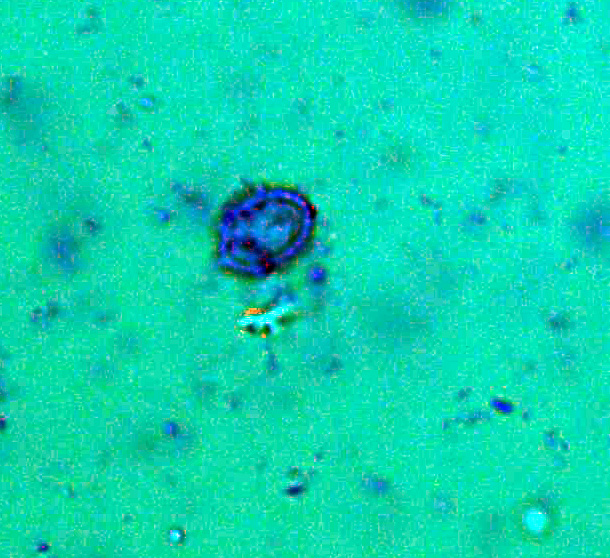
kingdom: Fungi
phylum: Basidiomycota
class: Agaricomycetes
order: Agaricales
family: Stephanosporaceae
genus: Lindtneria
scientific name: Lindtneria panphyliensis
